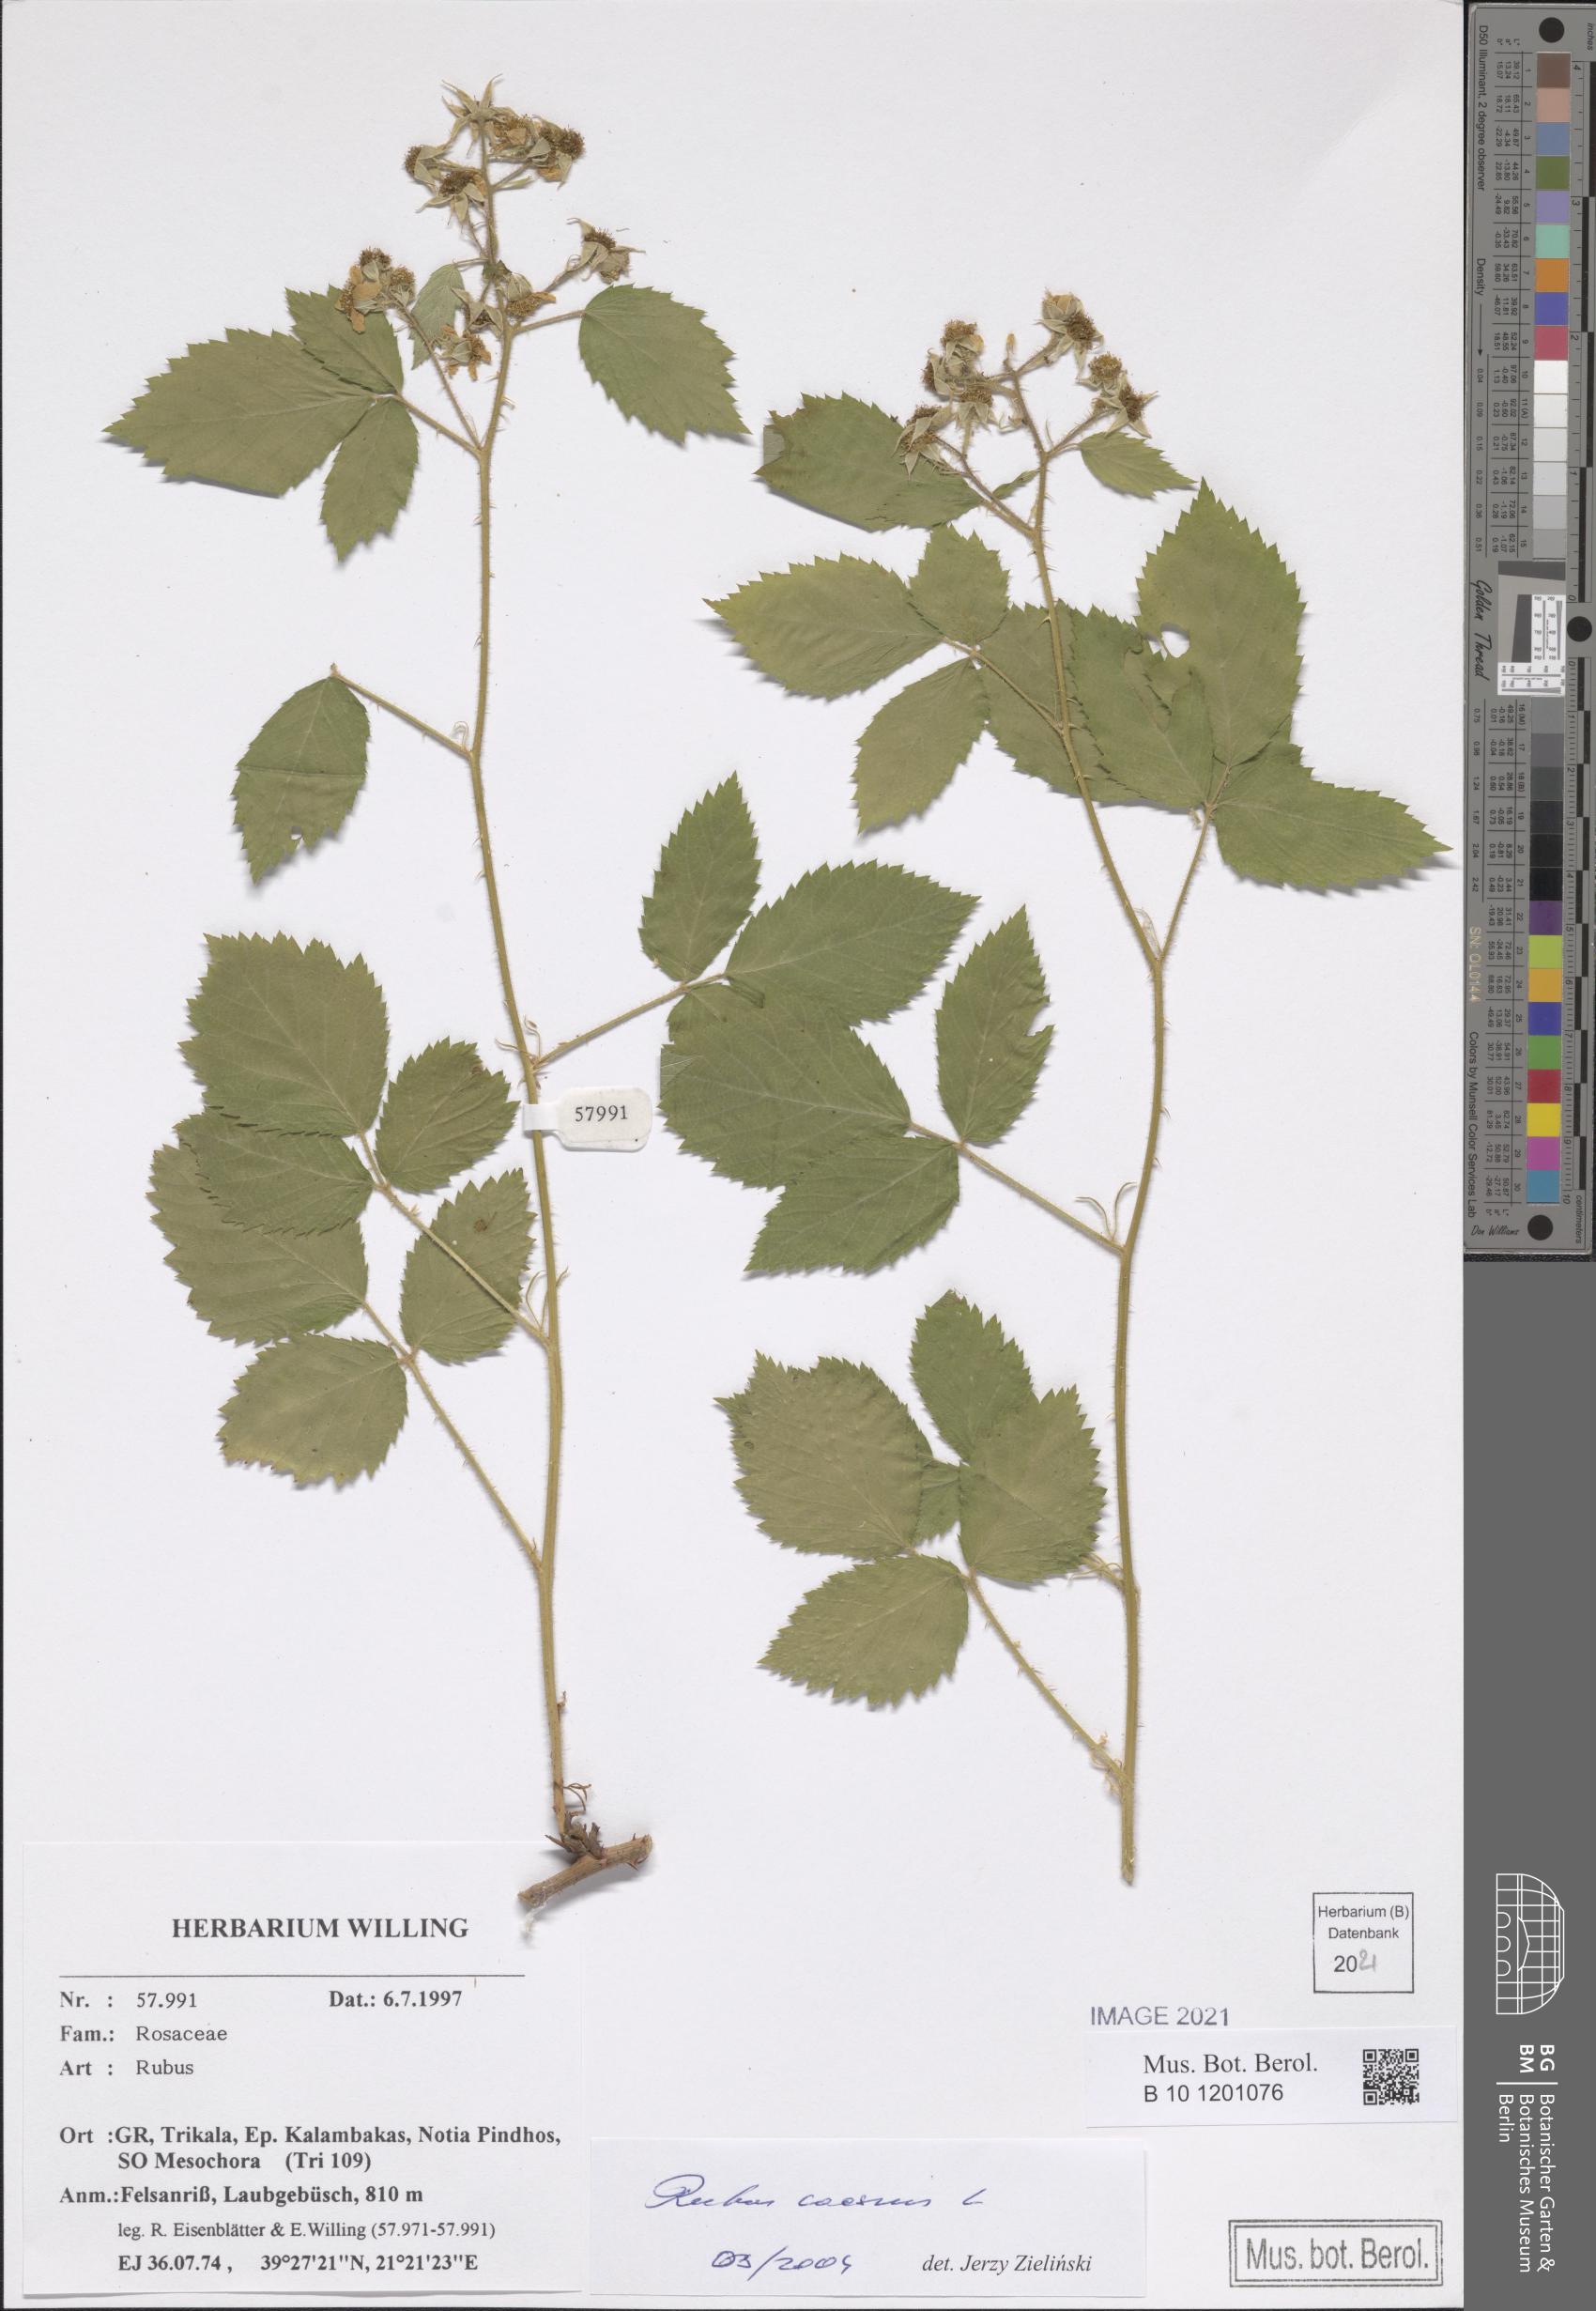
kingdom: Plantae
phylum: Tracheophyta
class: Magnoliopsida
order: Rosales
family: Rosaceae
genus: Rubus
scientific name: Rubus caesius
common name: Dewberry
